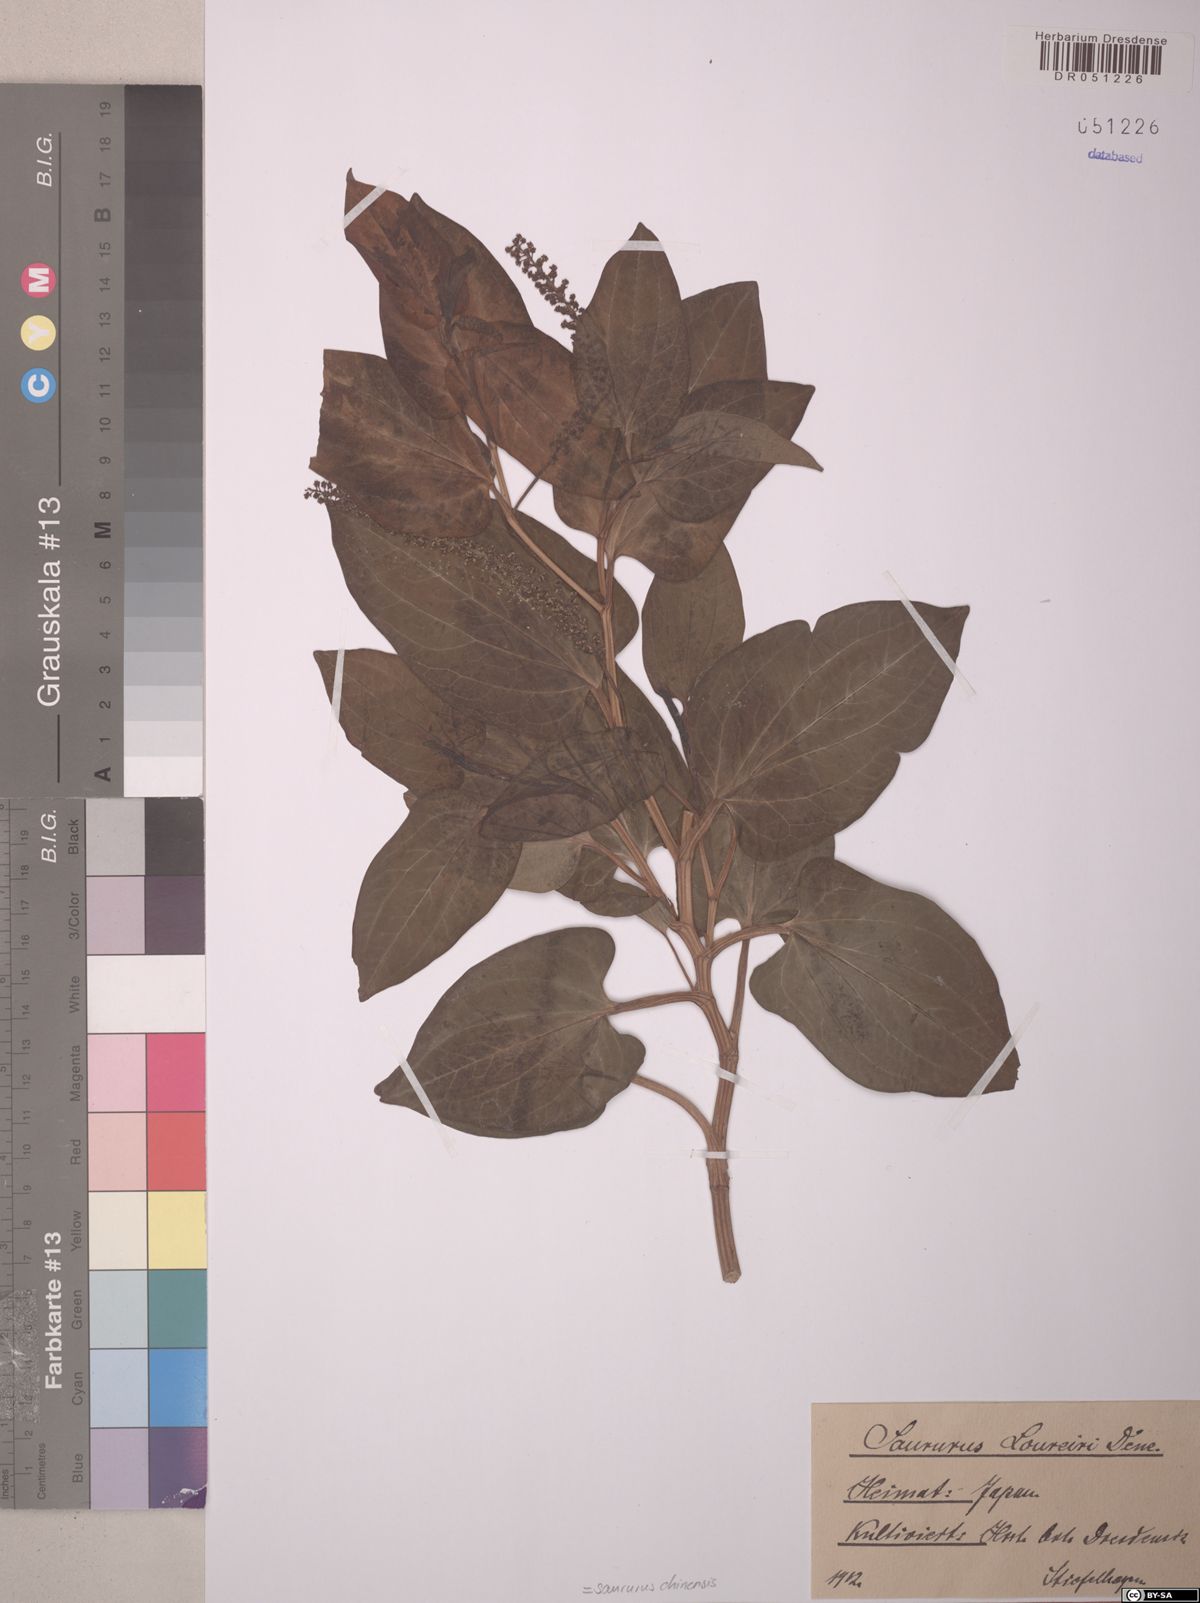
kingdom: Plantae
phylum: Tracheophyta
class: Magnoliopsida
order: Piperales
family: Saururaceae
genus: Saururus
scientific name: Saururus chinensis
